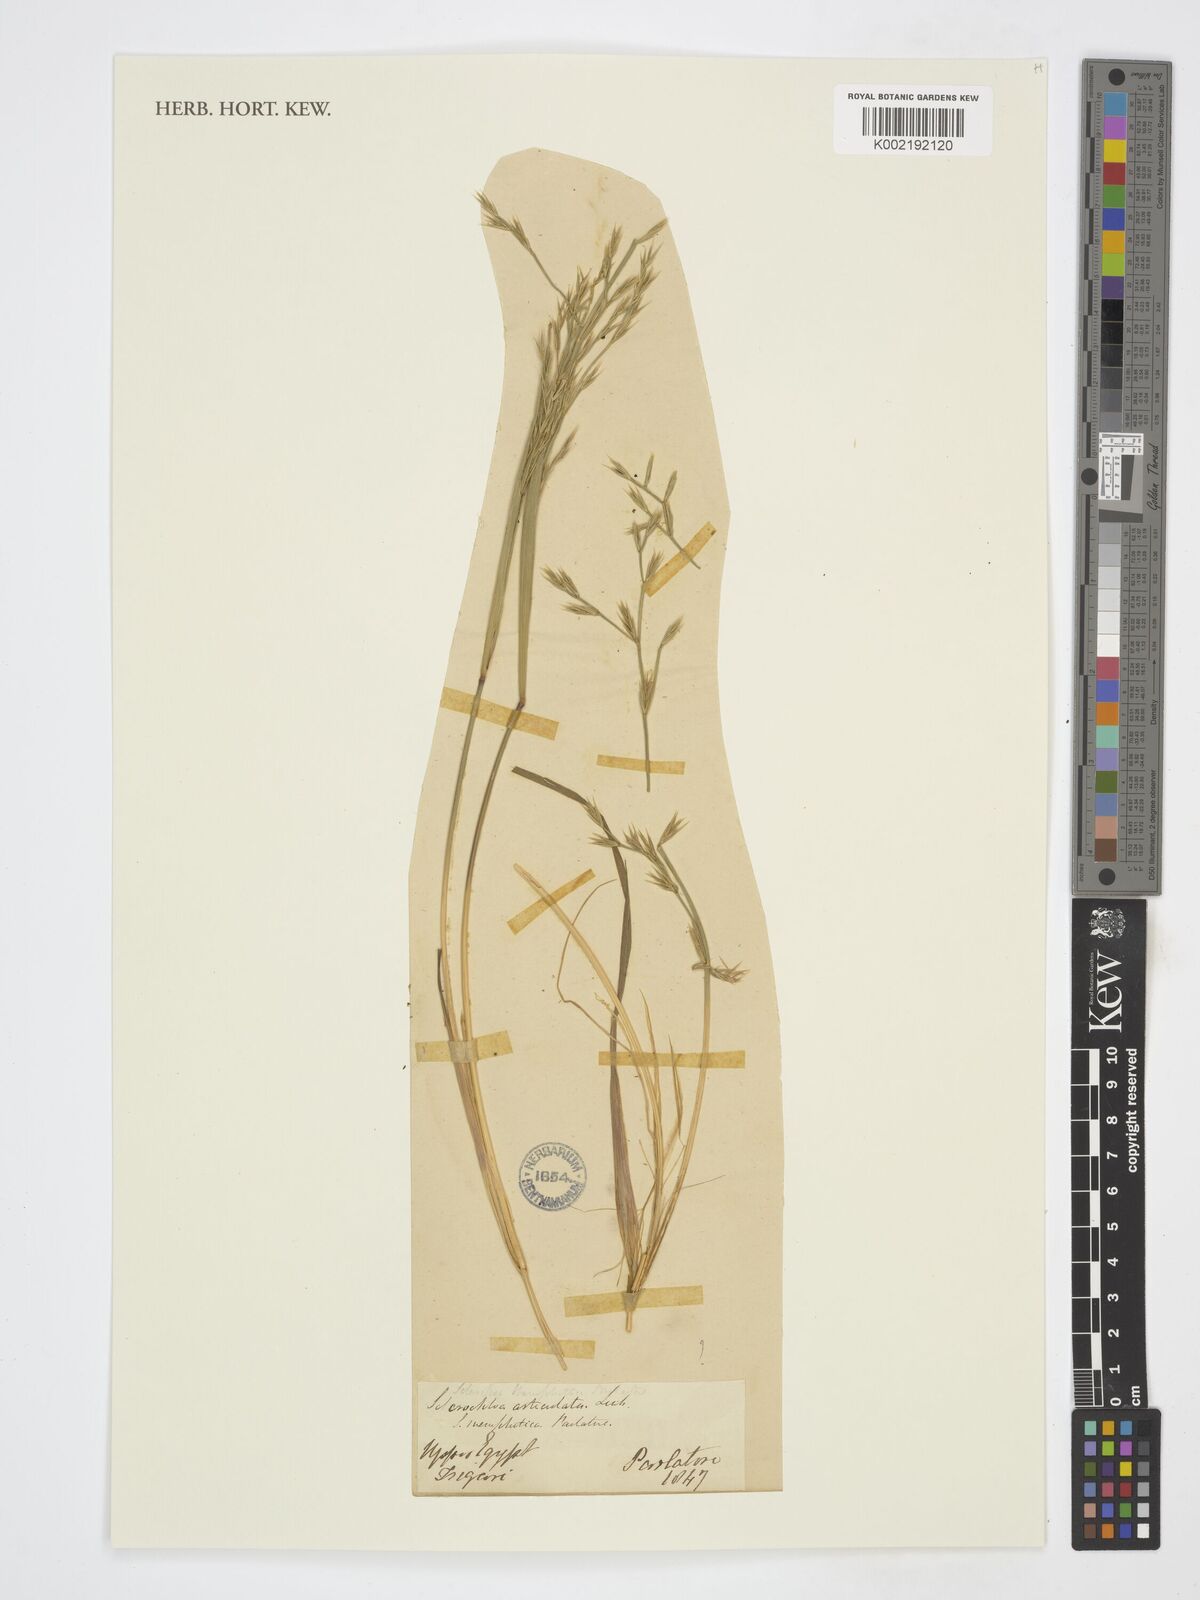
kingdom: Plantae
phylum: Tracheophyta
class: Liliopsida
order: Poales
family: Poaceae
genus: Cutandia
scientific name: Cutandia
